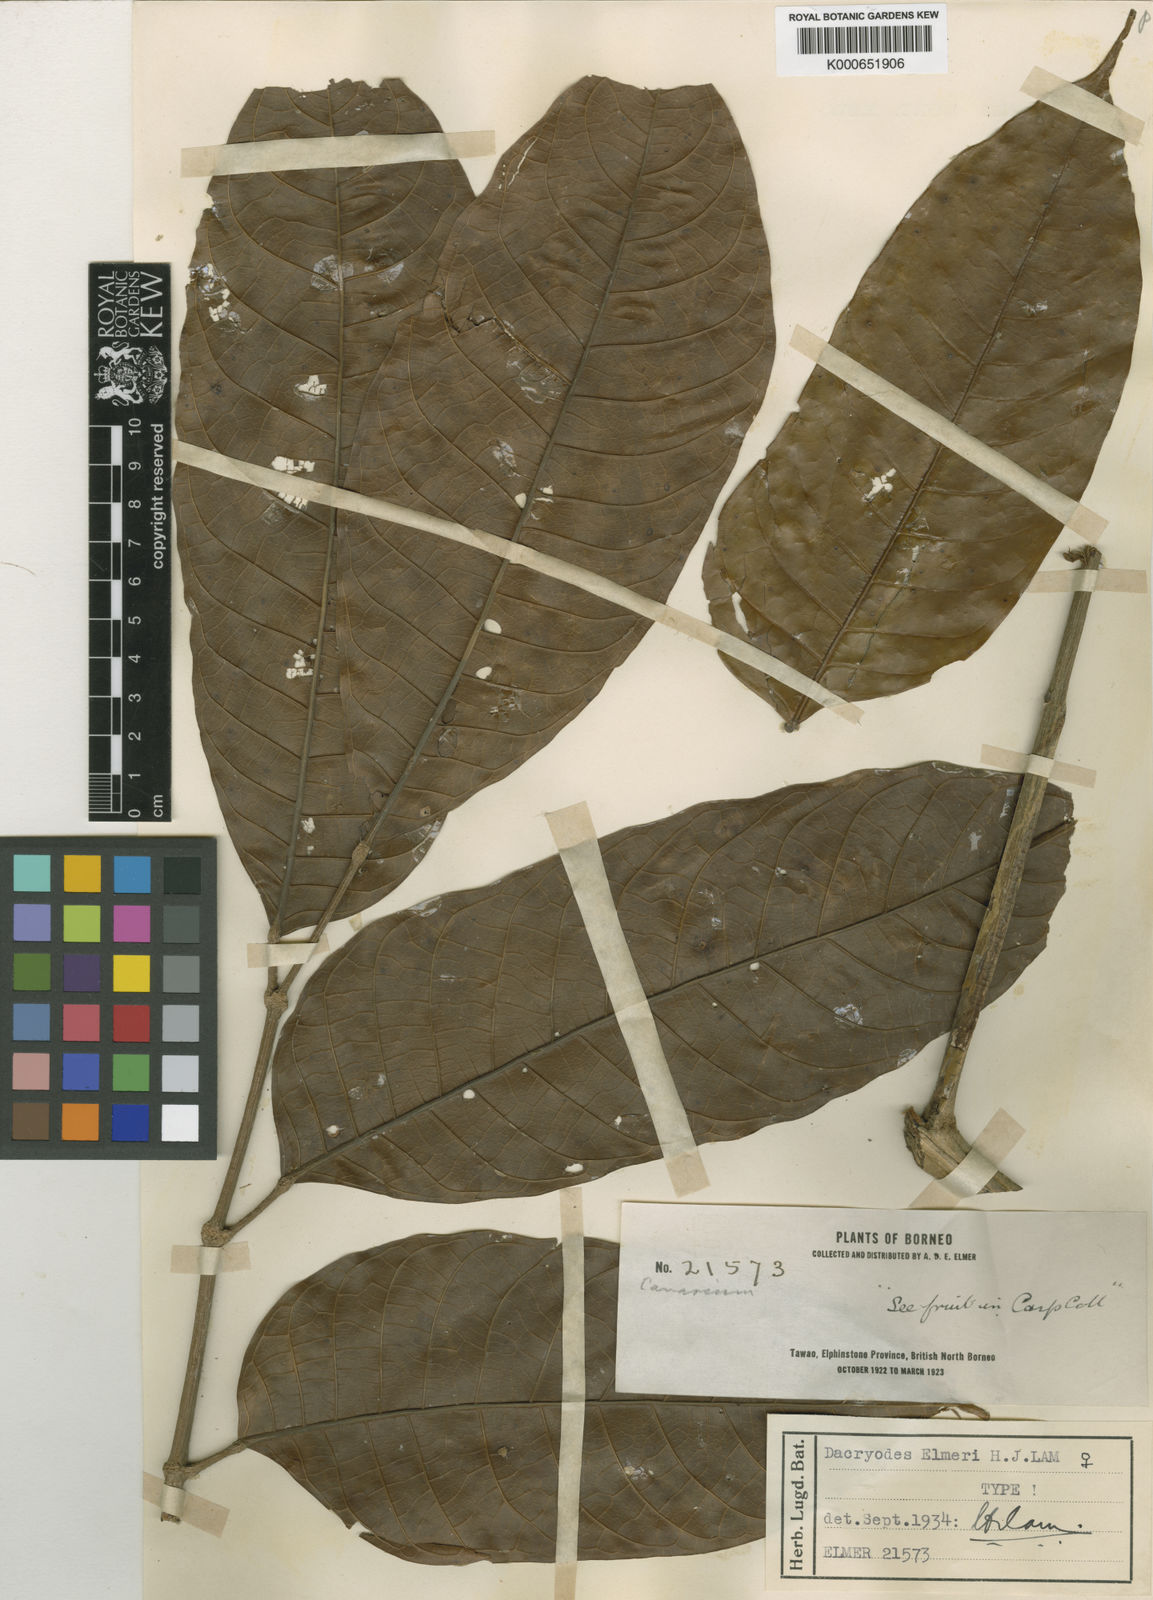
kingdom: Plantae
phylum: Tracheophyta
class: Magnoliopsida
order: Sapindales
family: Burseraceae
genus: Dacryodes
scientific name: Dacryodes elmeri
